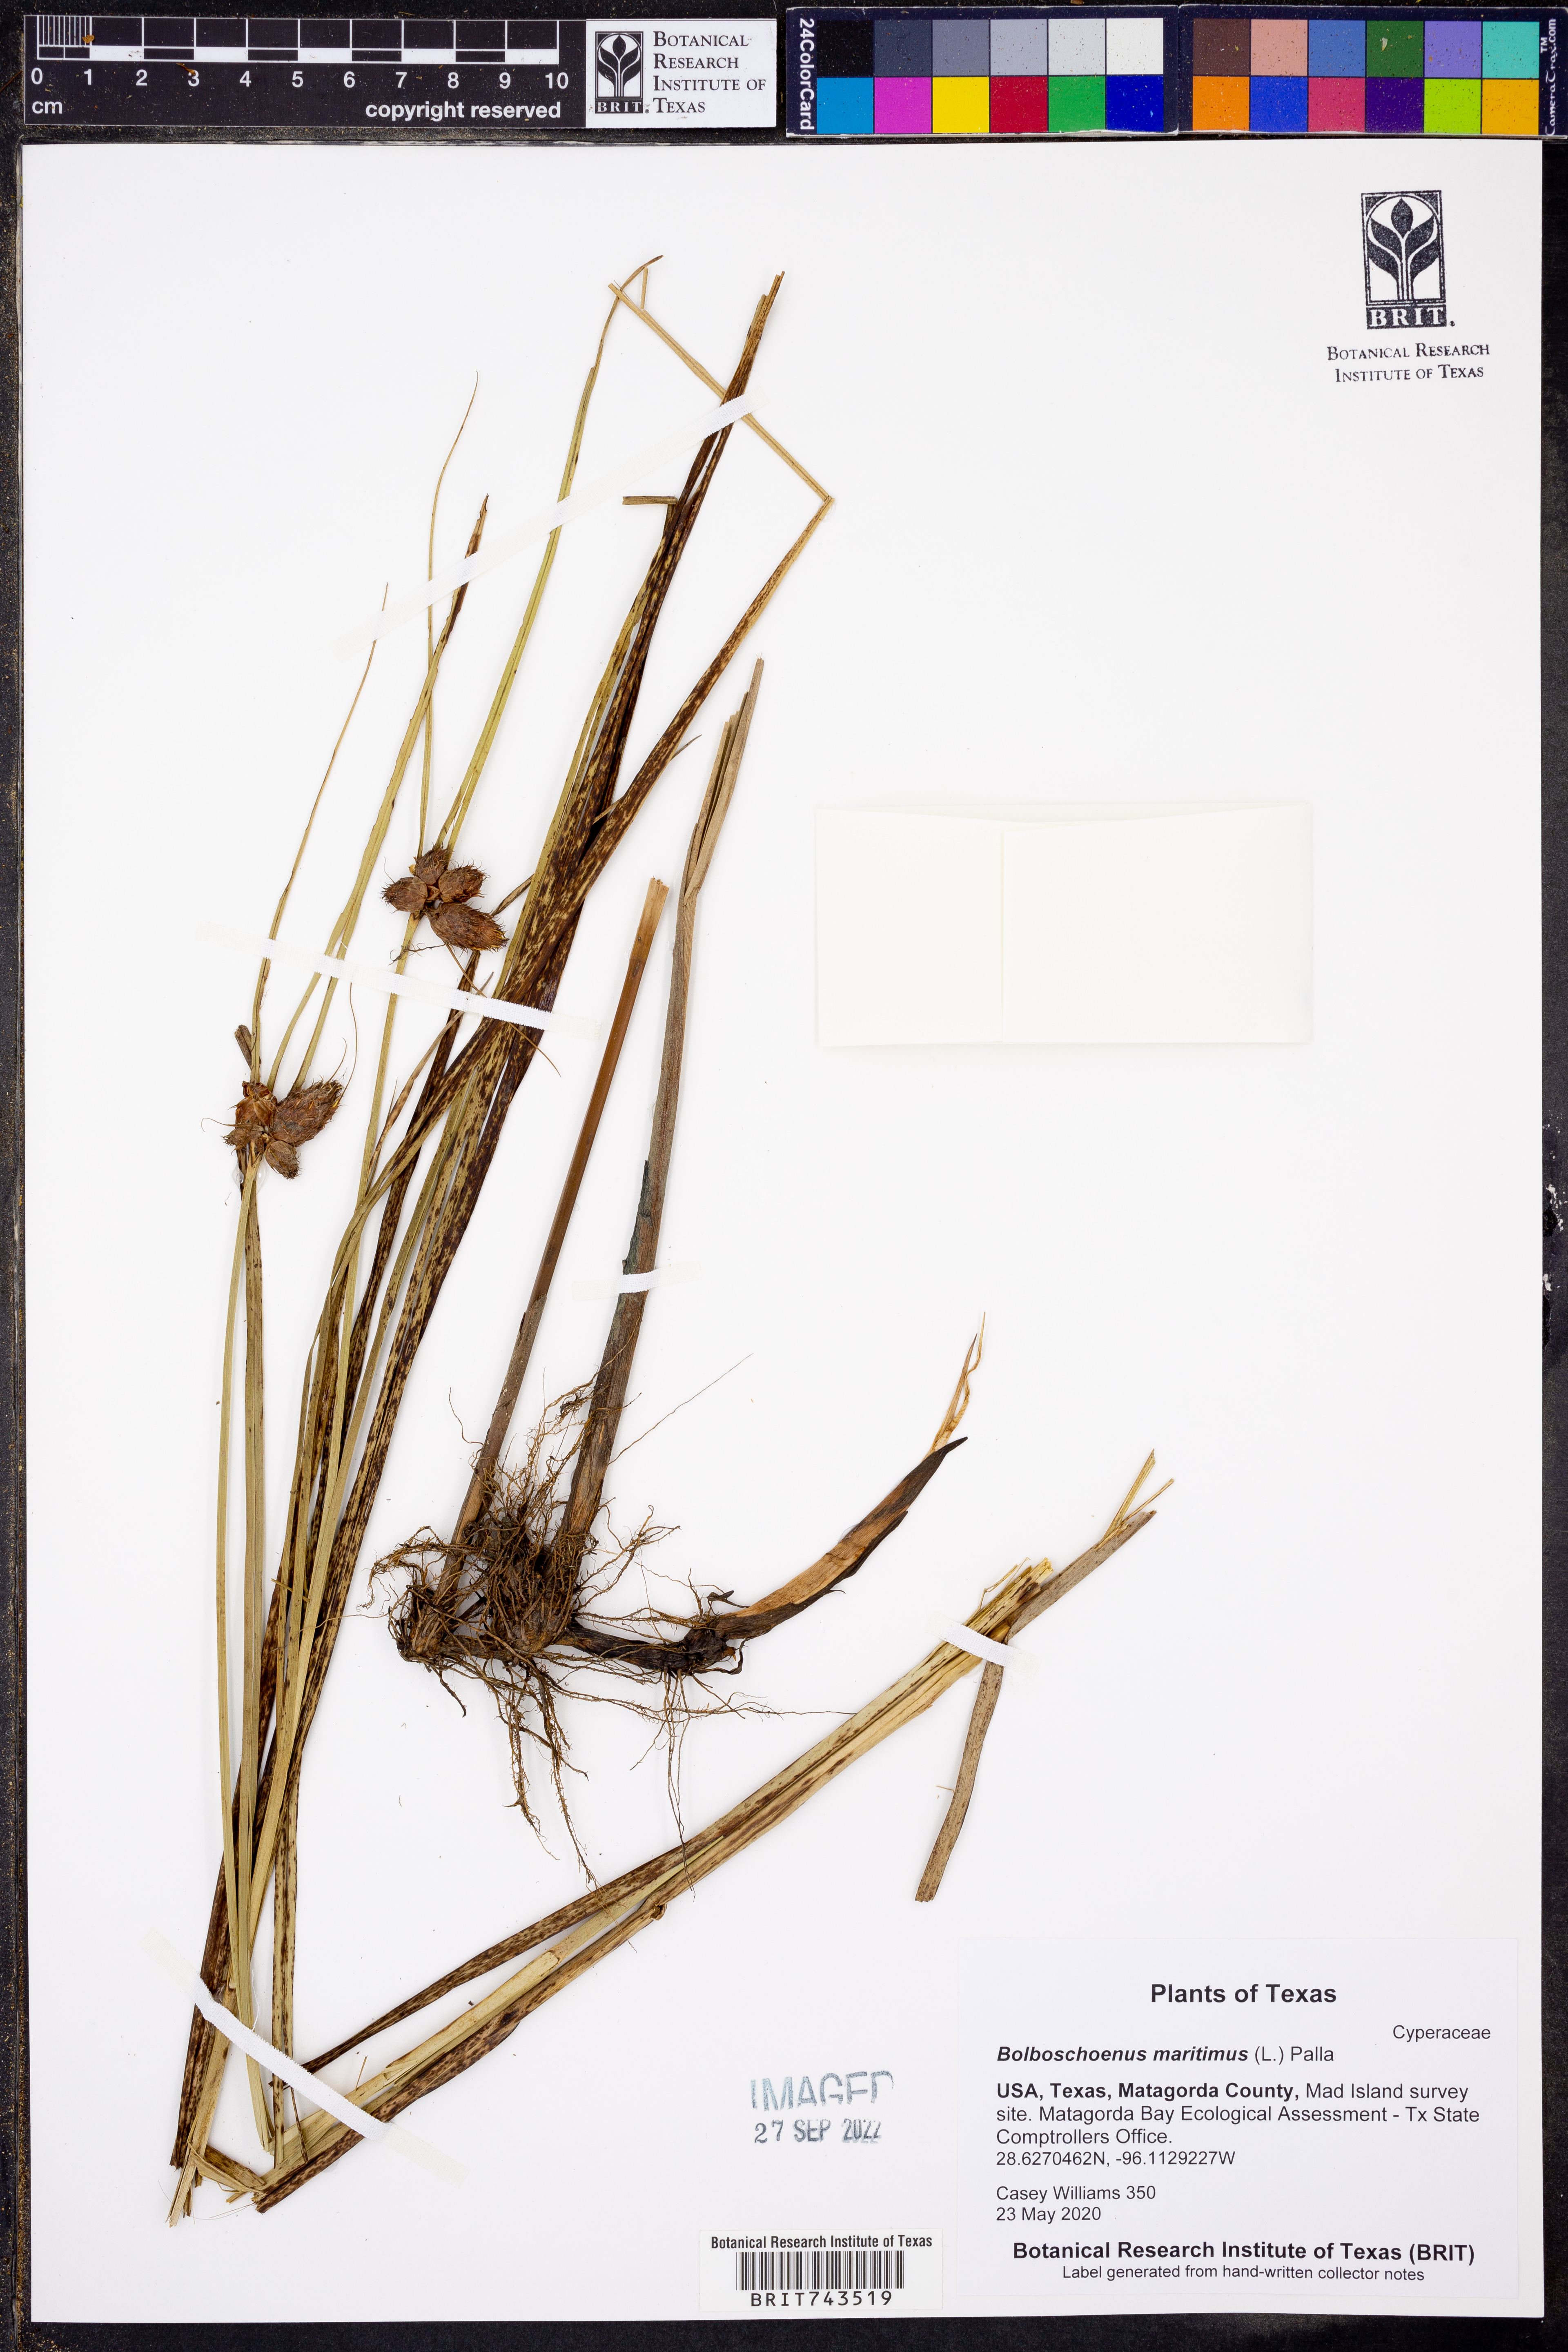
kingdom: Plantae
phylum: Tracheophyta
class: Liliopsida
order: Poales
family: Cyperaceae
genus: Bolboschoenus
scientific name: Bolboschoenus maritimus
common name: Sea club-rush
